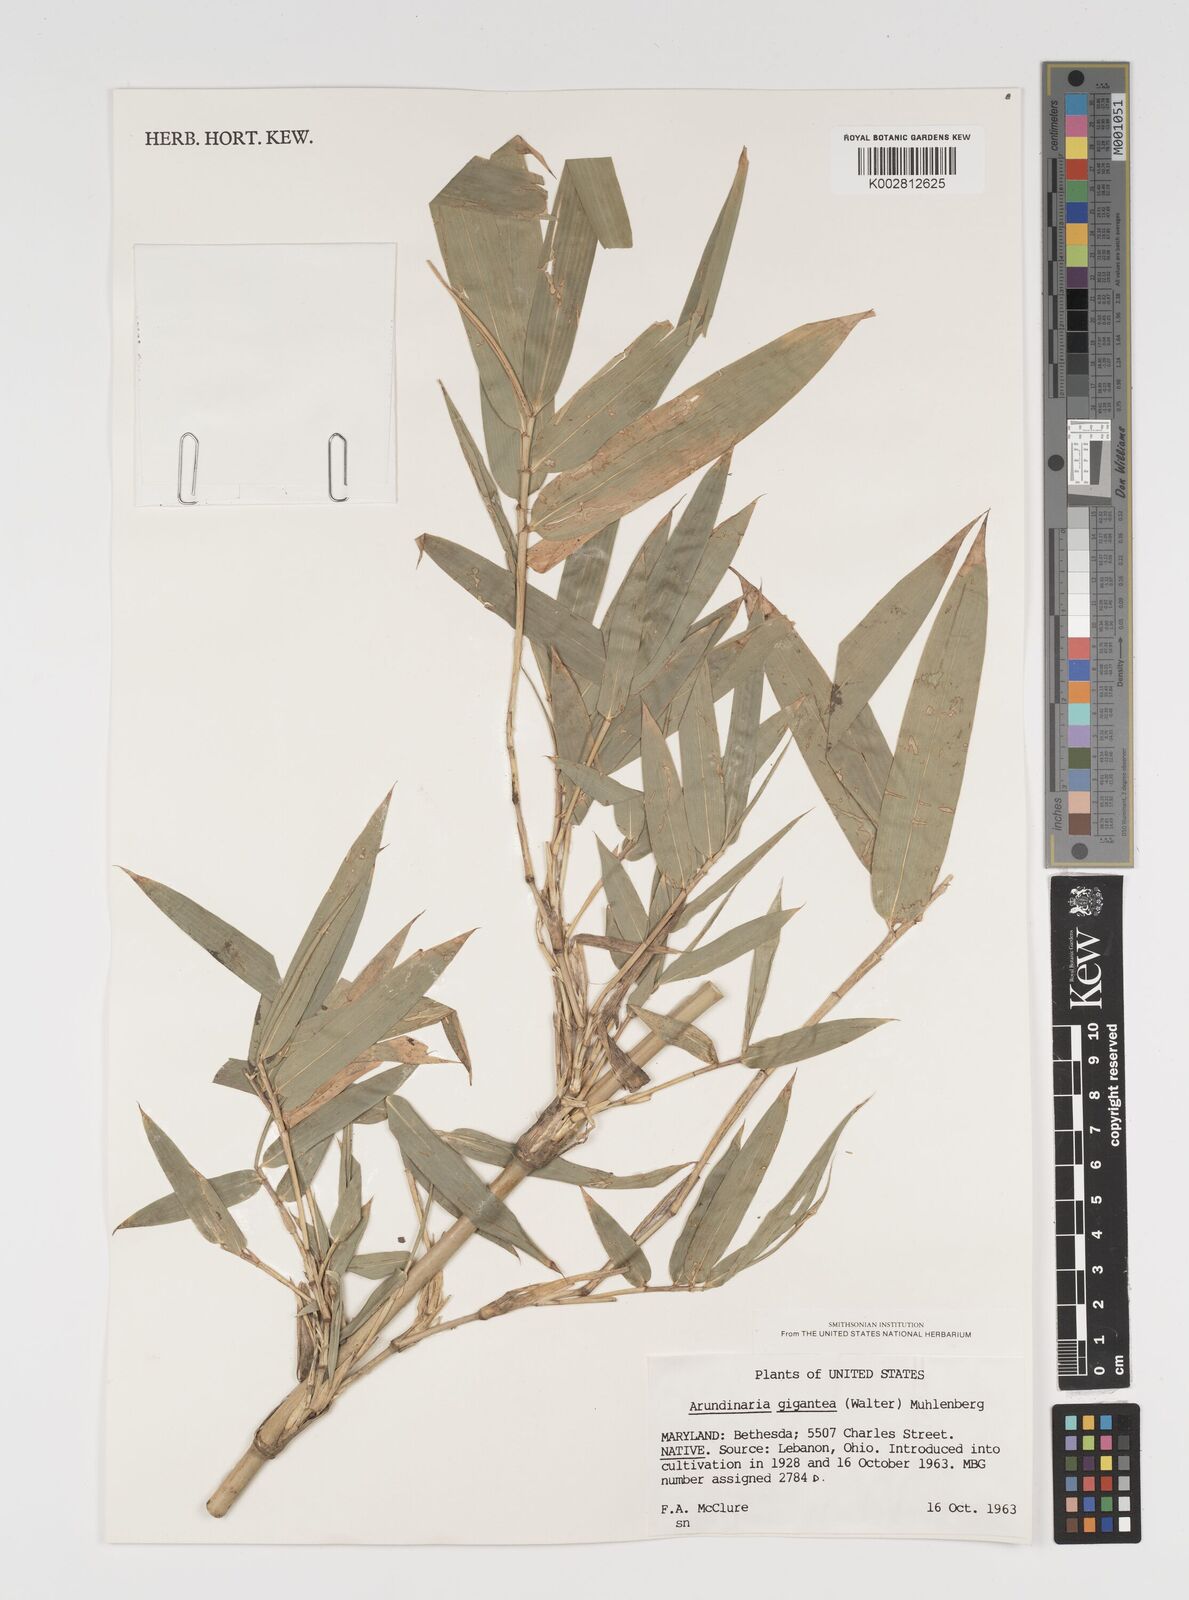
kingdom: Plantae
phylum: Tracheophyta
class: Liliopsida
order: Poales
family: Poaceae
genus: Arundinaria
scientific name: Arundinaria
